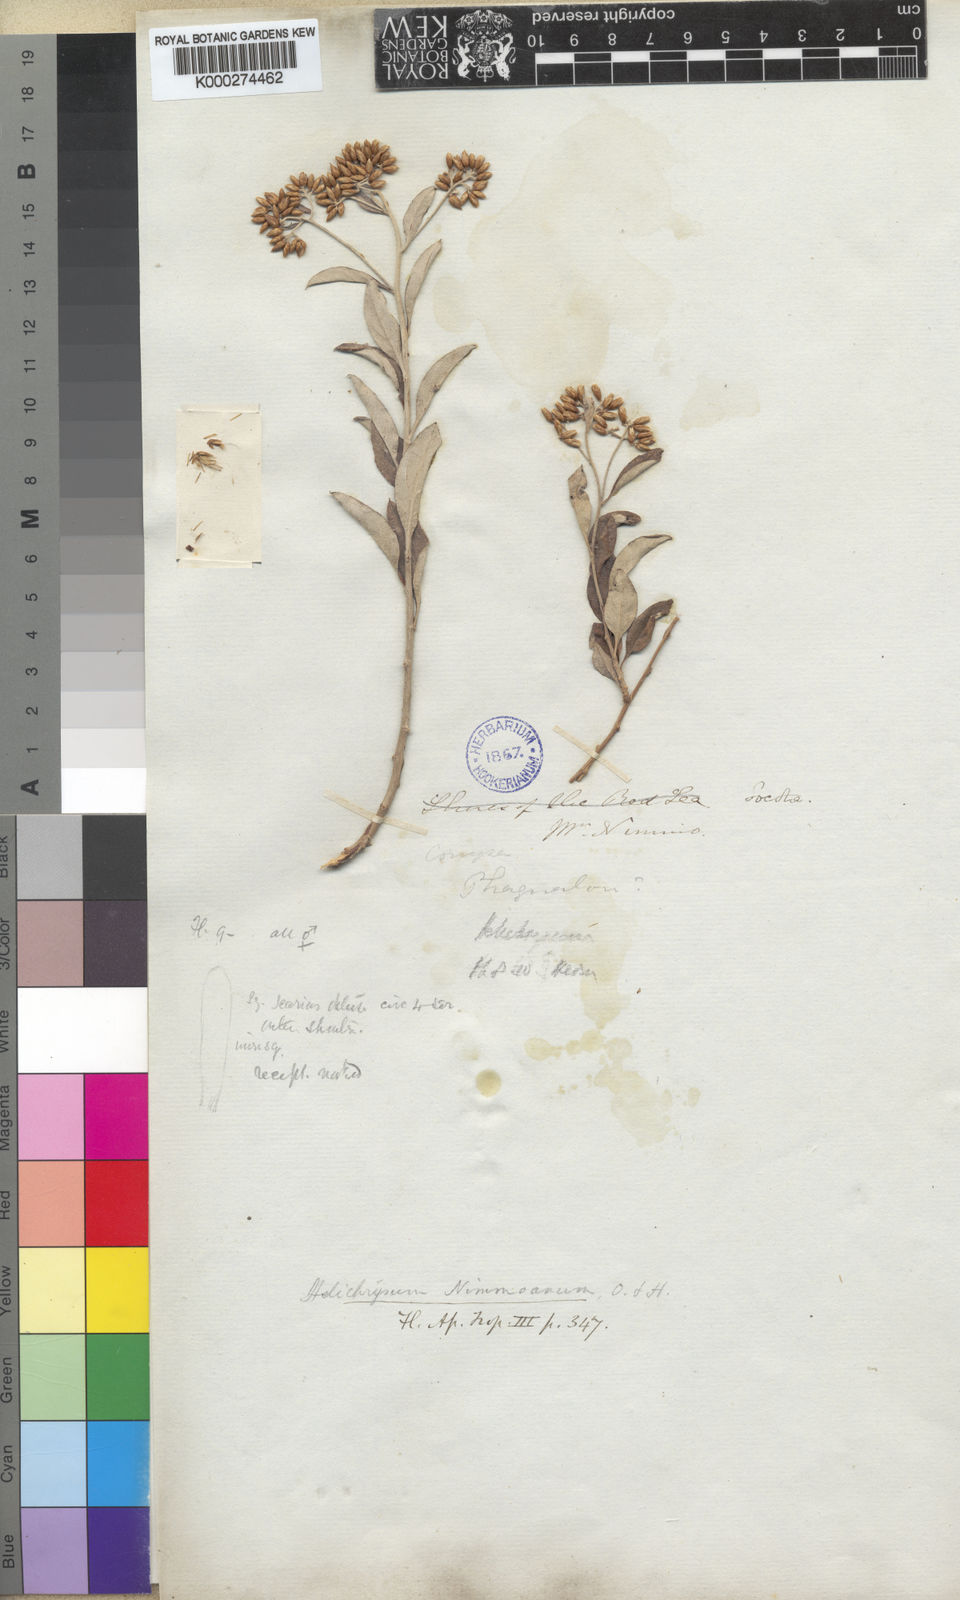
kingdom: Plantae
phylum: Tracheophyta
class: Magnoliopsida
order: Asterales
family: Asteraceae
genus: Libinhania
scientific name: Libinhania nimmoana
